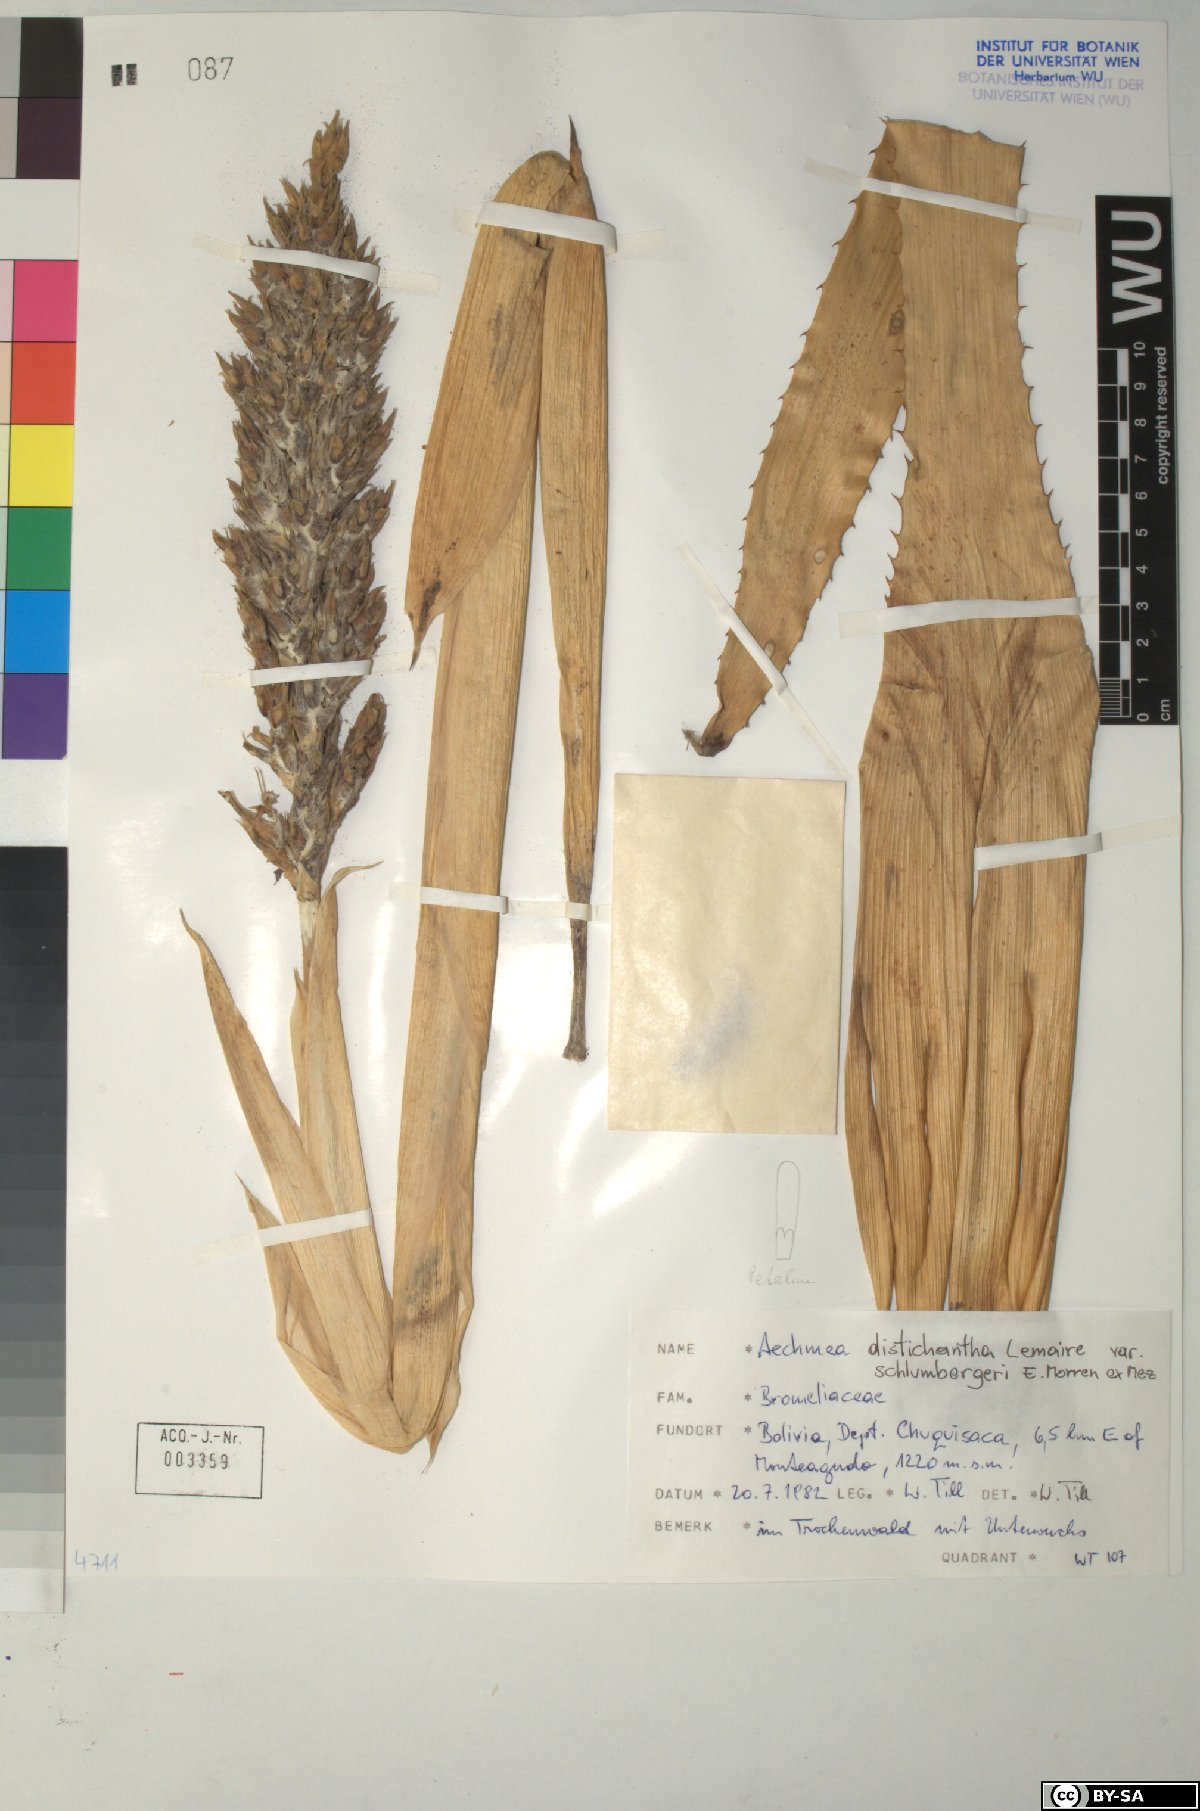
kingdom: Plantae
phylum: Tracheophyta
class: Liliopsida
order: Poales
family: Bromeliaceae
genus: Aechmea
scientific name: Aechmea
